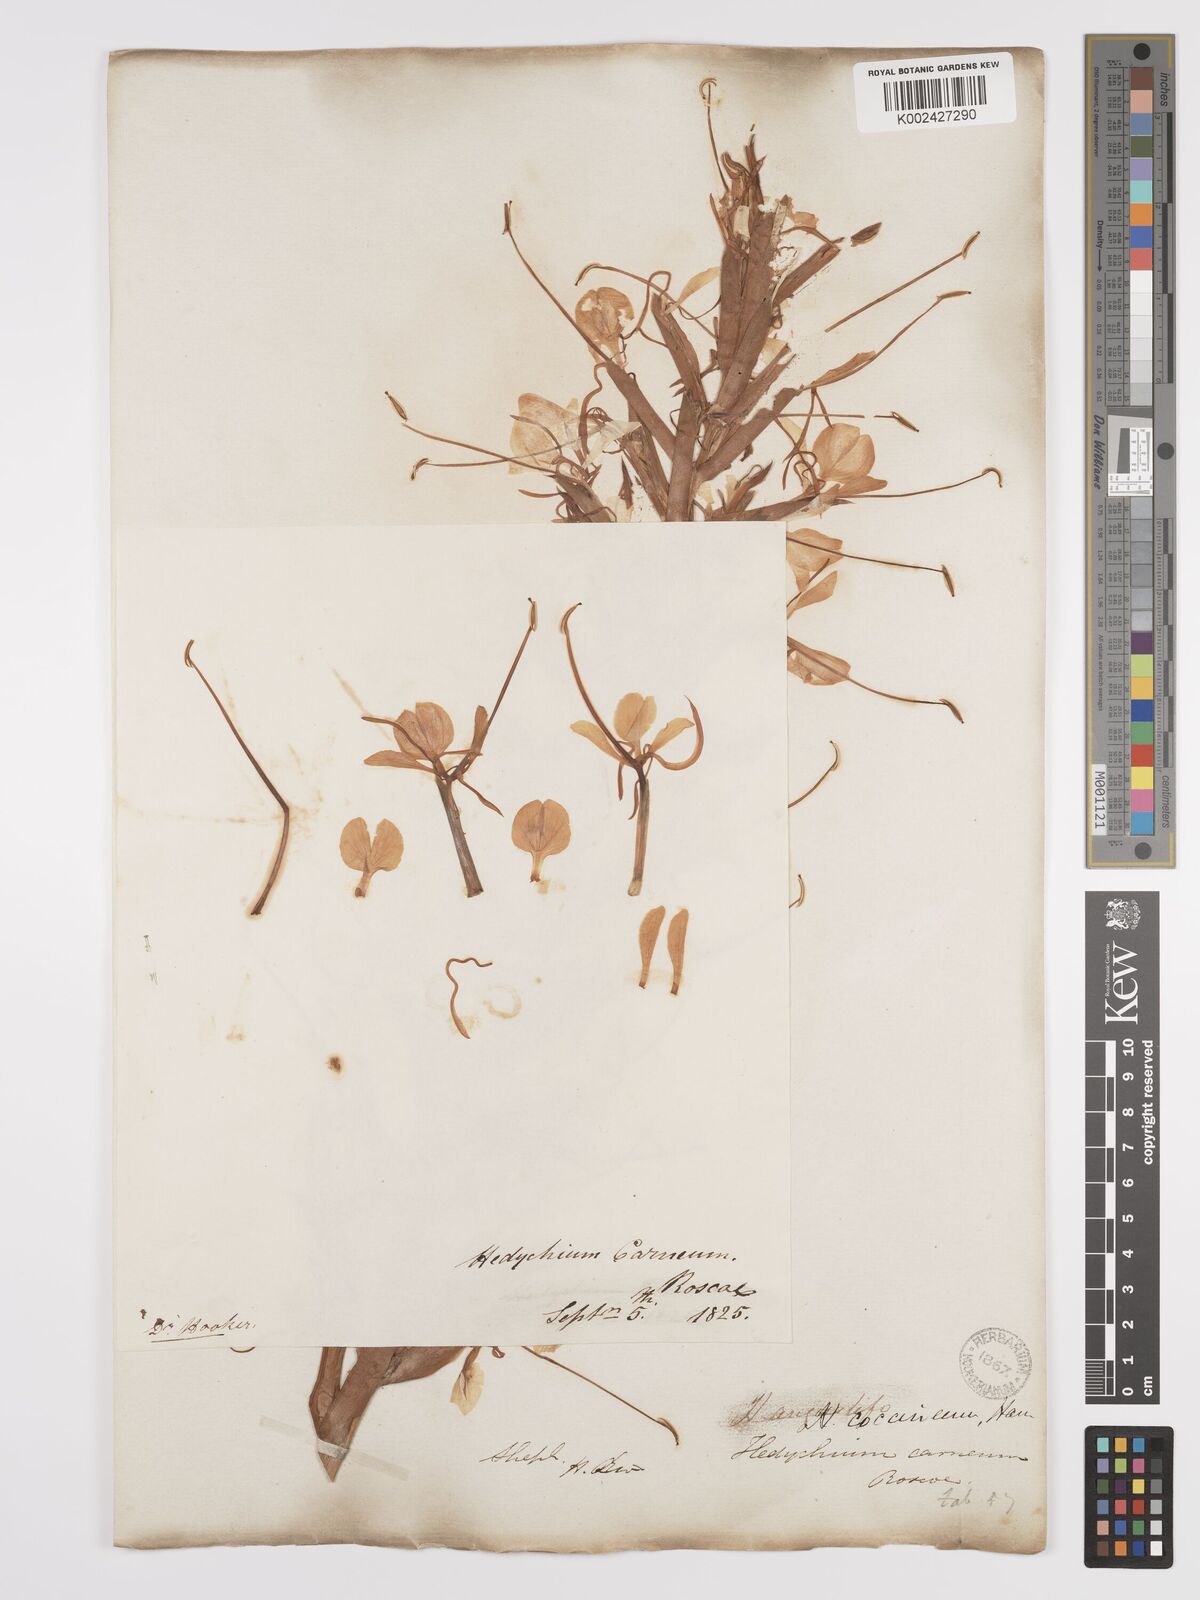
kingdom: Plantae
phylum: Tracheophyta
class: Liliopsida
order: Zingiberales
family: Zingiberaceae
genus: Hedychium
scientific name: Hedychium coccineum
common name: Red ginger-lily
